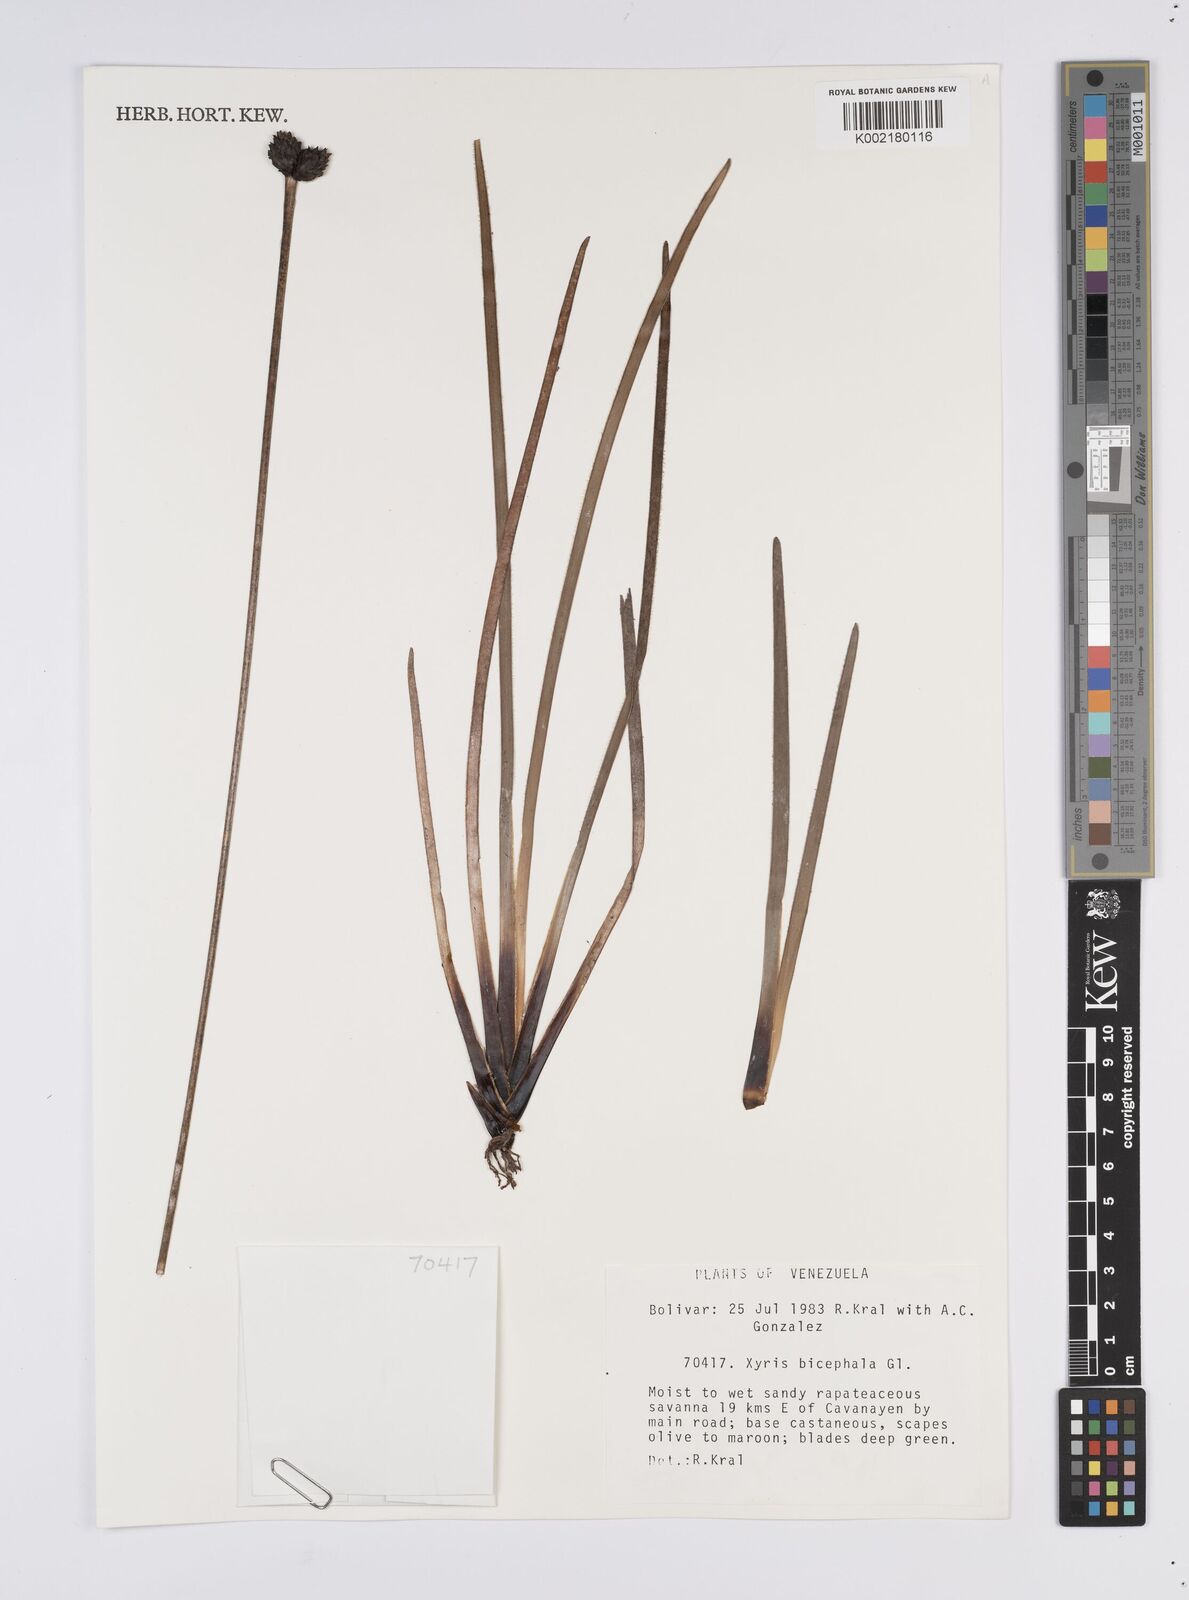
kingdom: Plantae
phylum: Tracheophyta
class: Liliopsida
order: Poales
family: Xyridaceae
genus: Xyris
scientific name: Xyris bicephala
